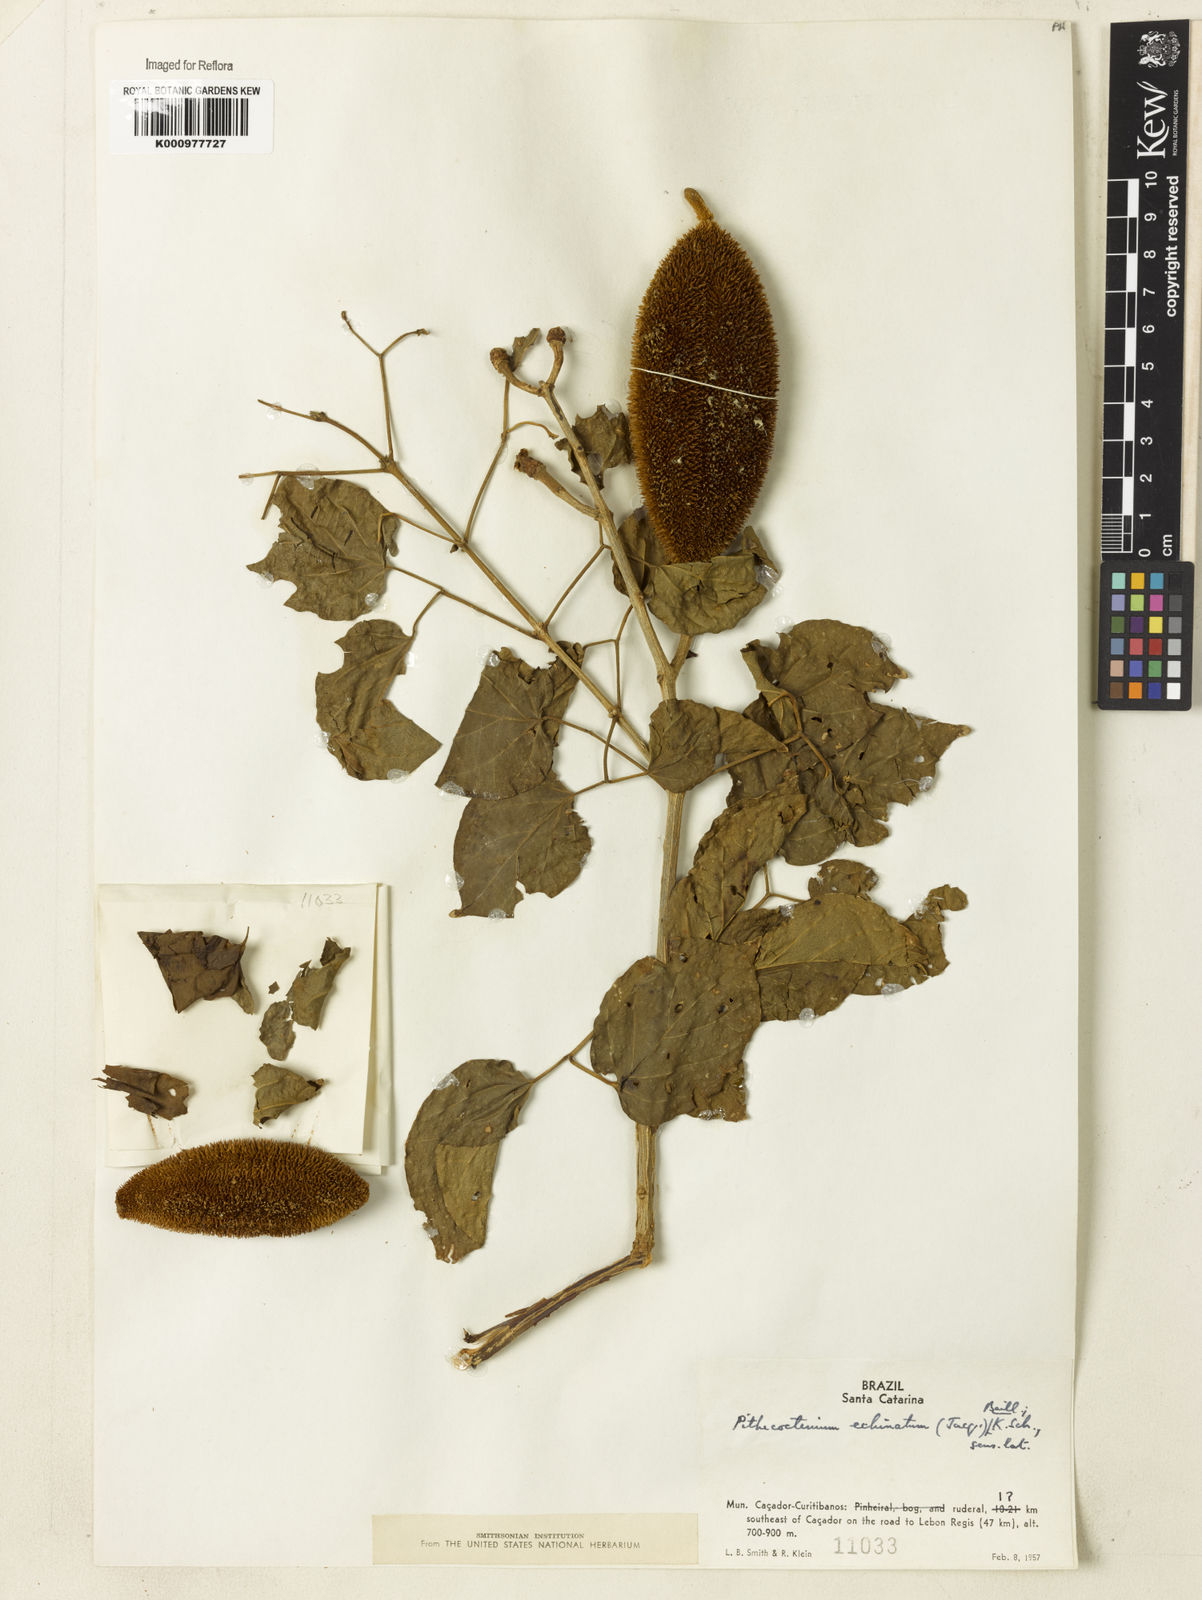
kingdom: Plantae
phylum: Tracheophyta
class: Magnoliopsida
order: Lamiales
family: Bignoniaceae
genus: Amphilophium
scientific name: Amphilophium crucigerum
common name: Monkey comb
